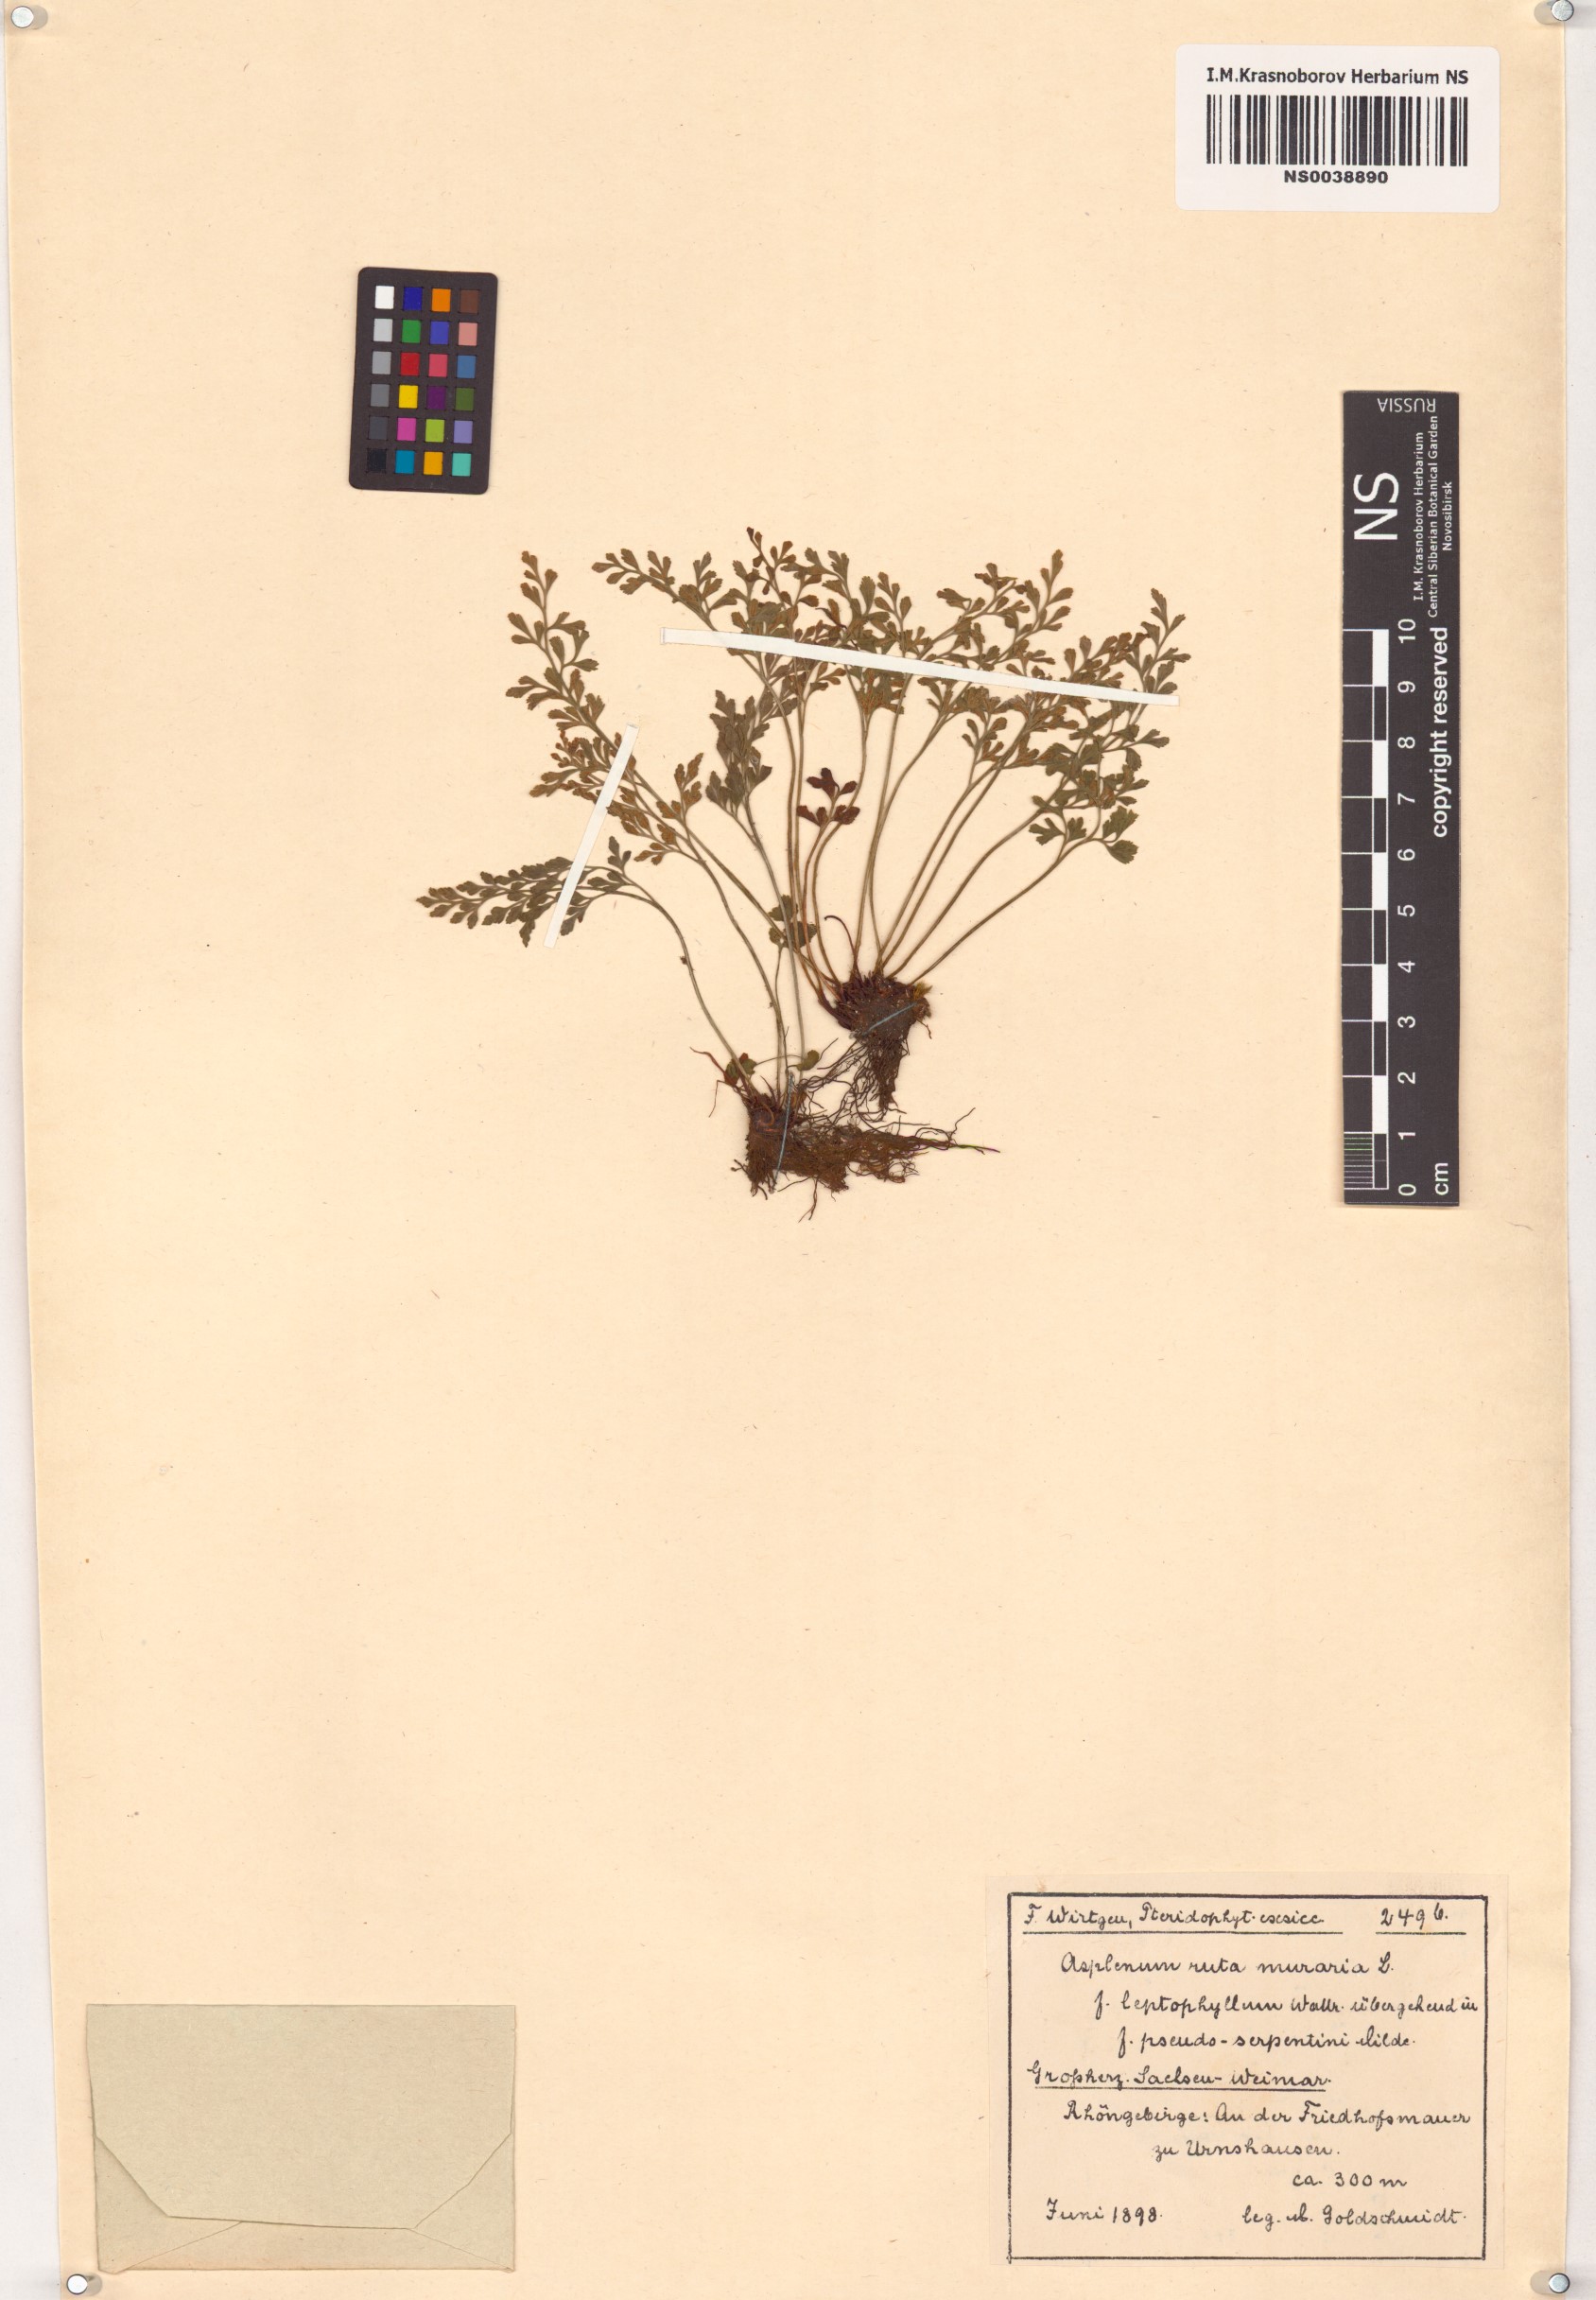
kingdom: Plantae
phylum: Tracheophyta
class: Polypodiopsida
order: Polypodiales
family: Aspleniaceae
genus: Asplenium
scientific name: Asplenium ruta-muraria
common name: Wall-rue
